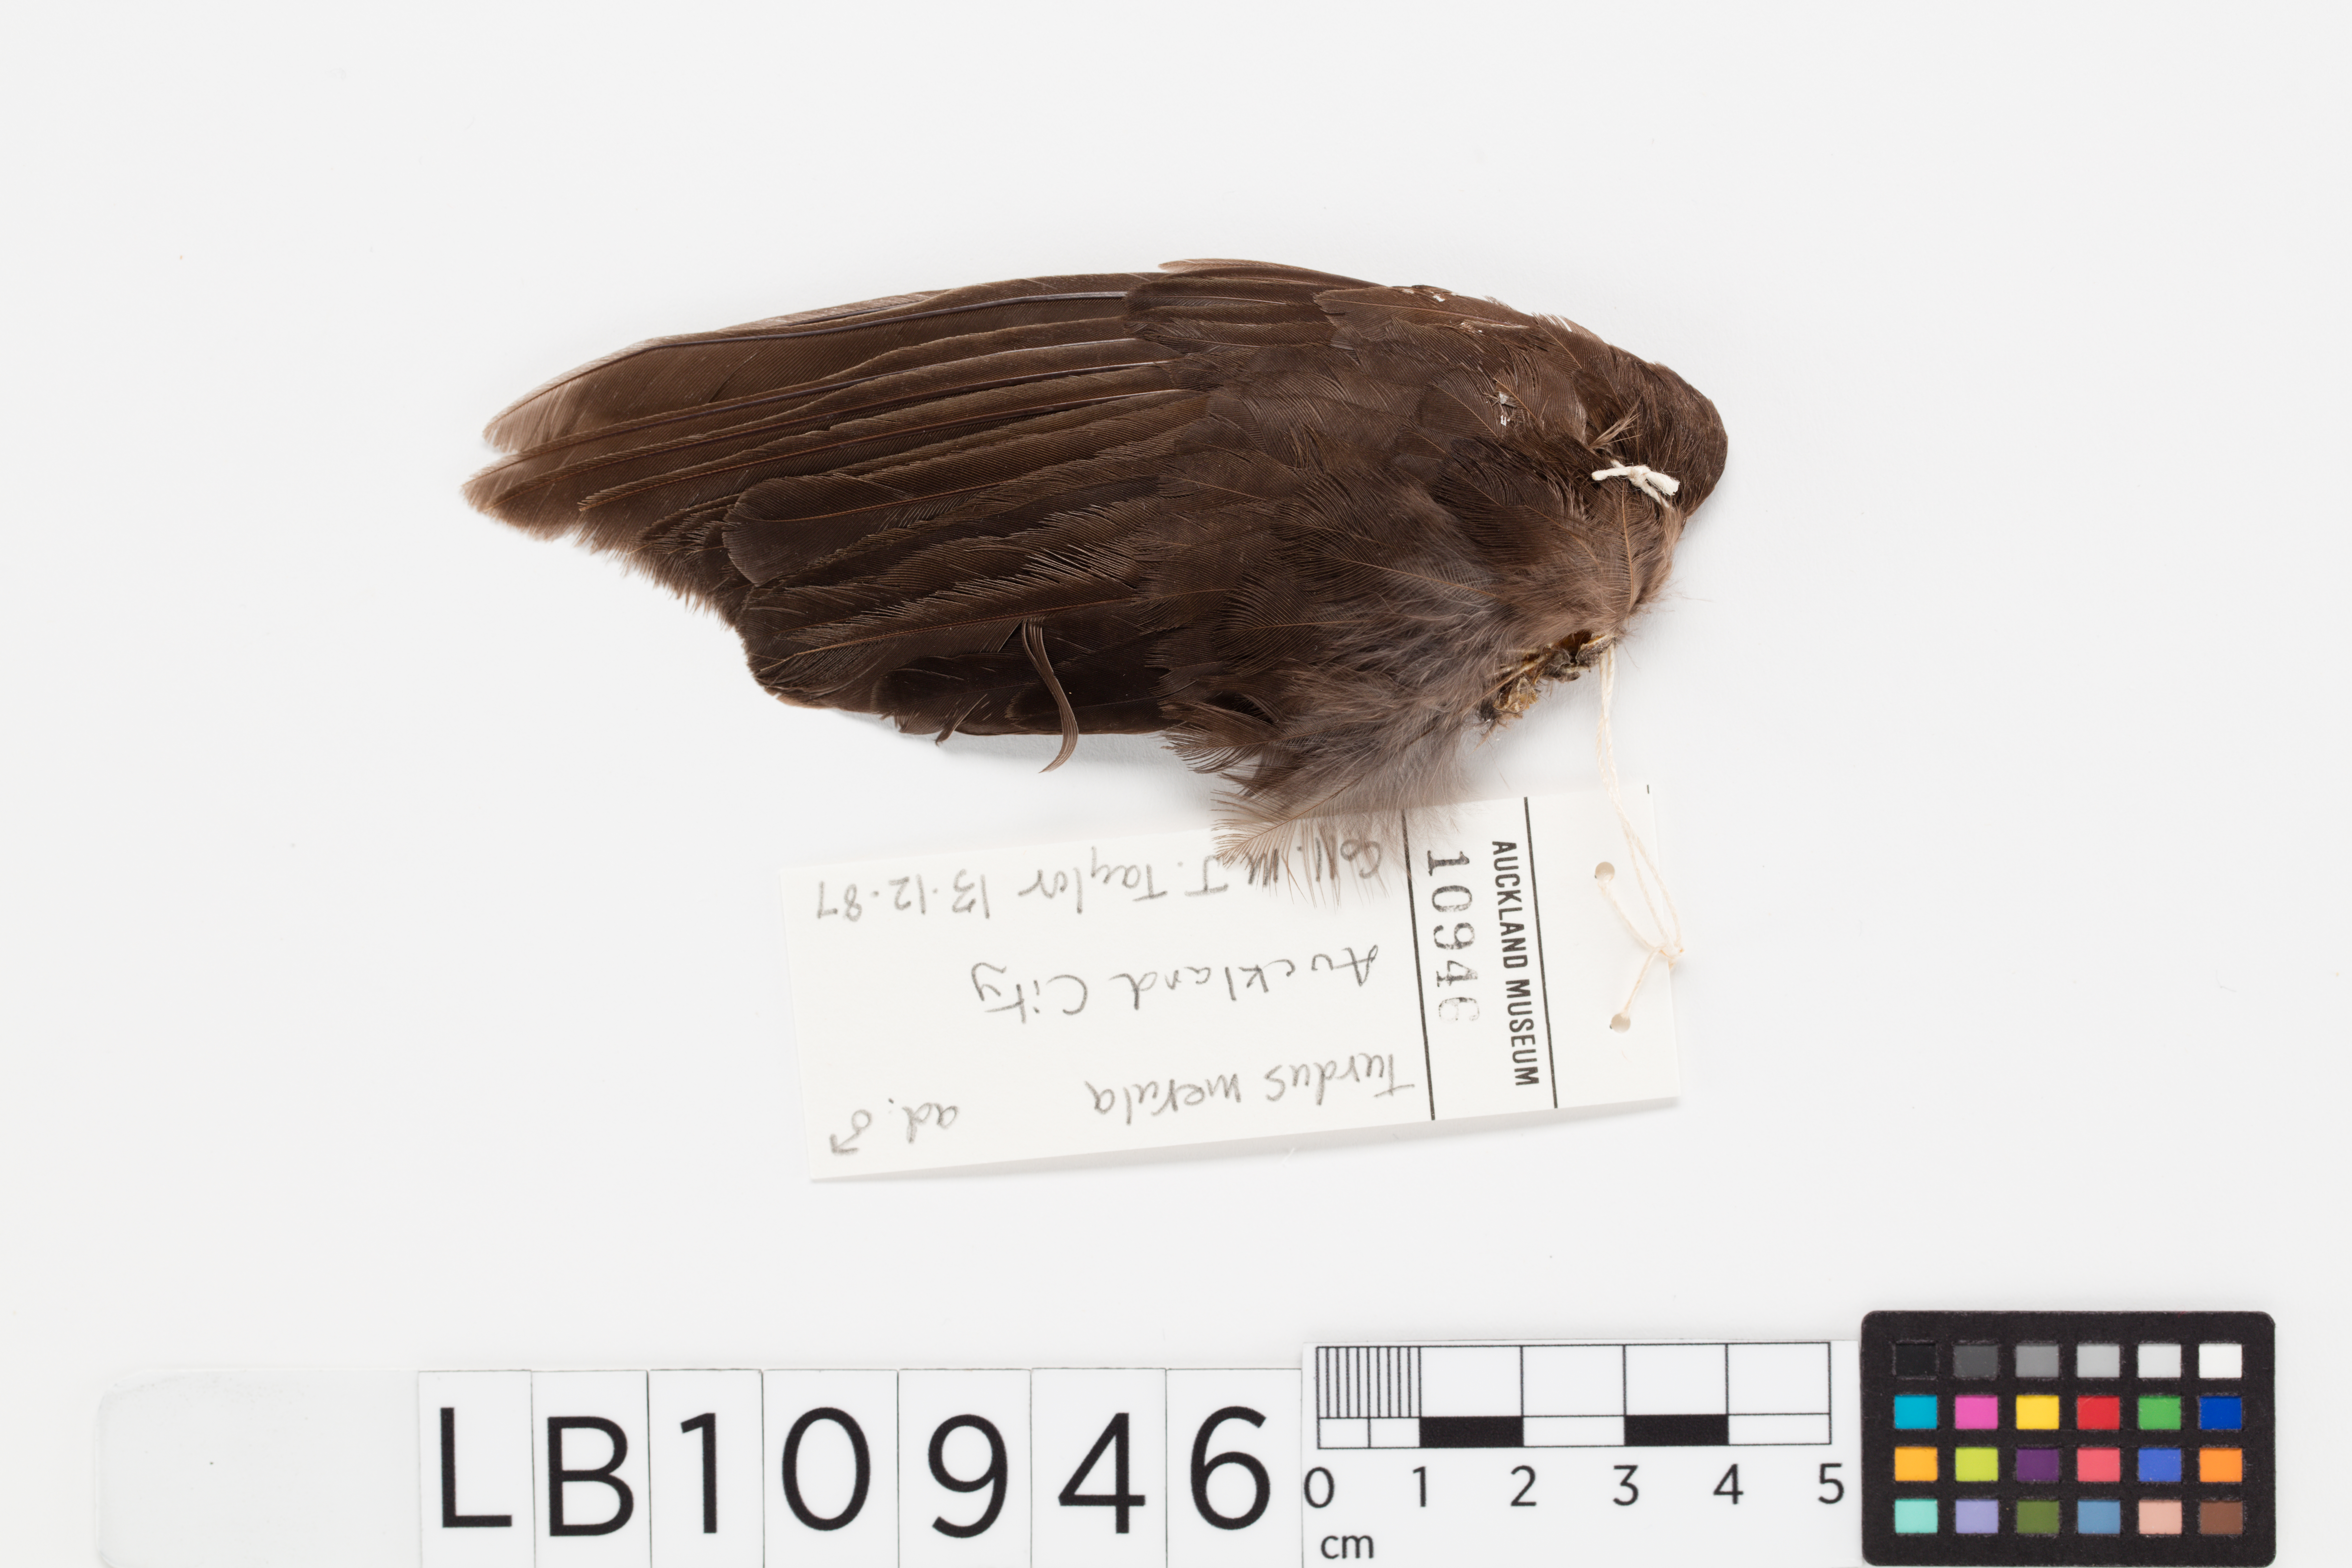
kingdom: Animalia
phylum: Chordata
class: Aves
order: Passeriformes
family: Turdidae
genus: Turdus
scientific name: Turdus merula
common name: Common blackbird
